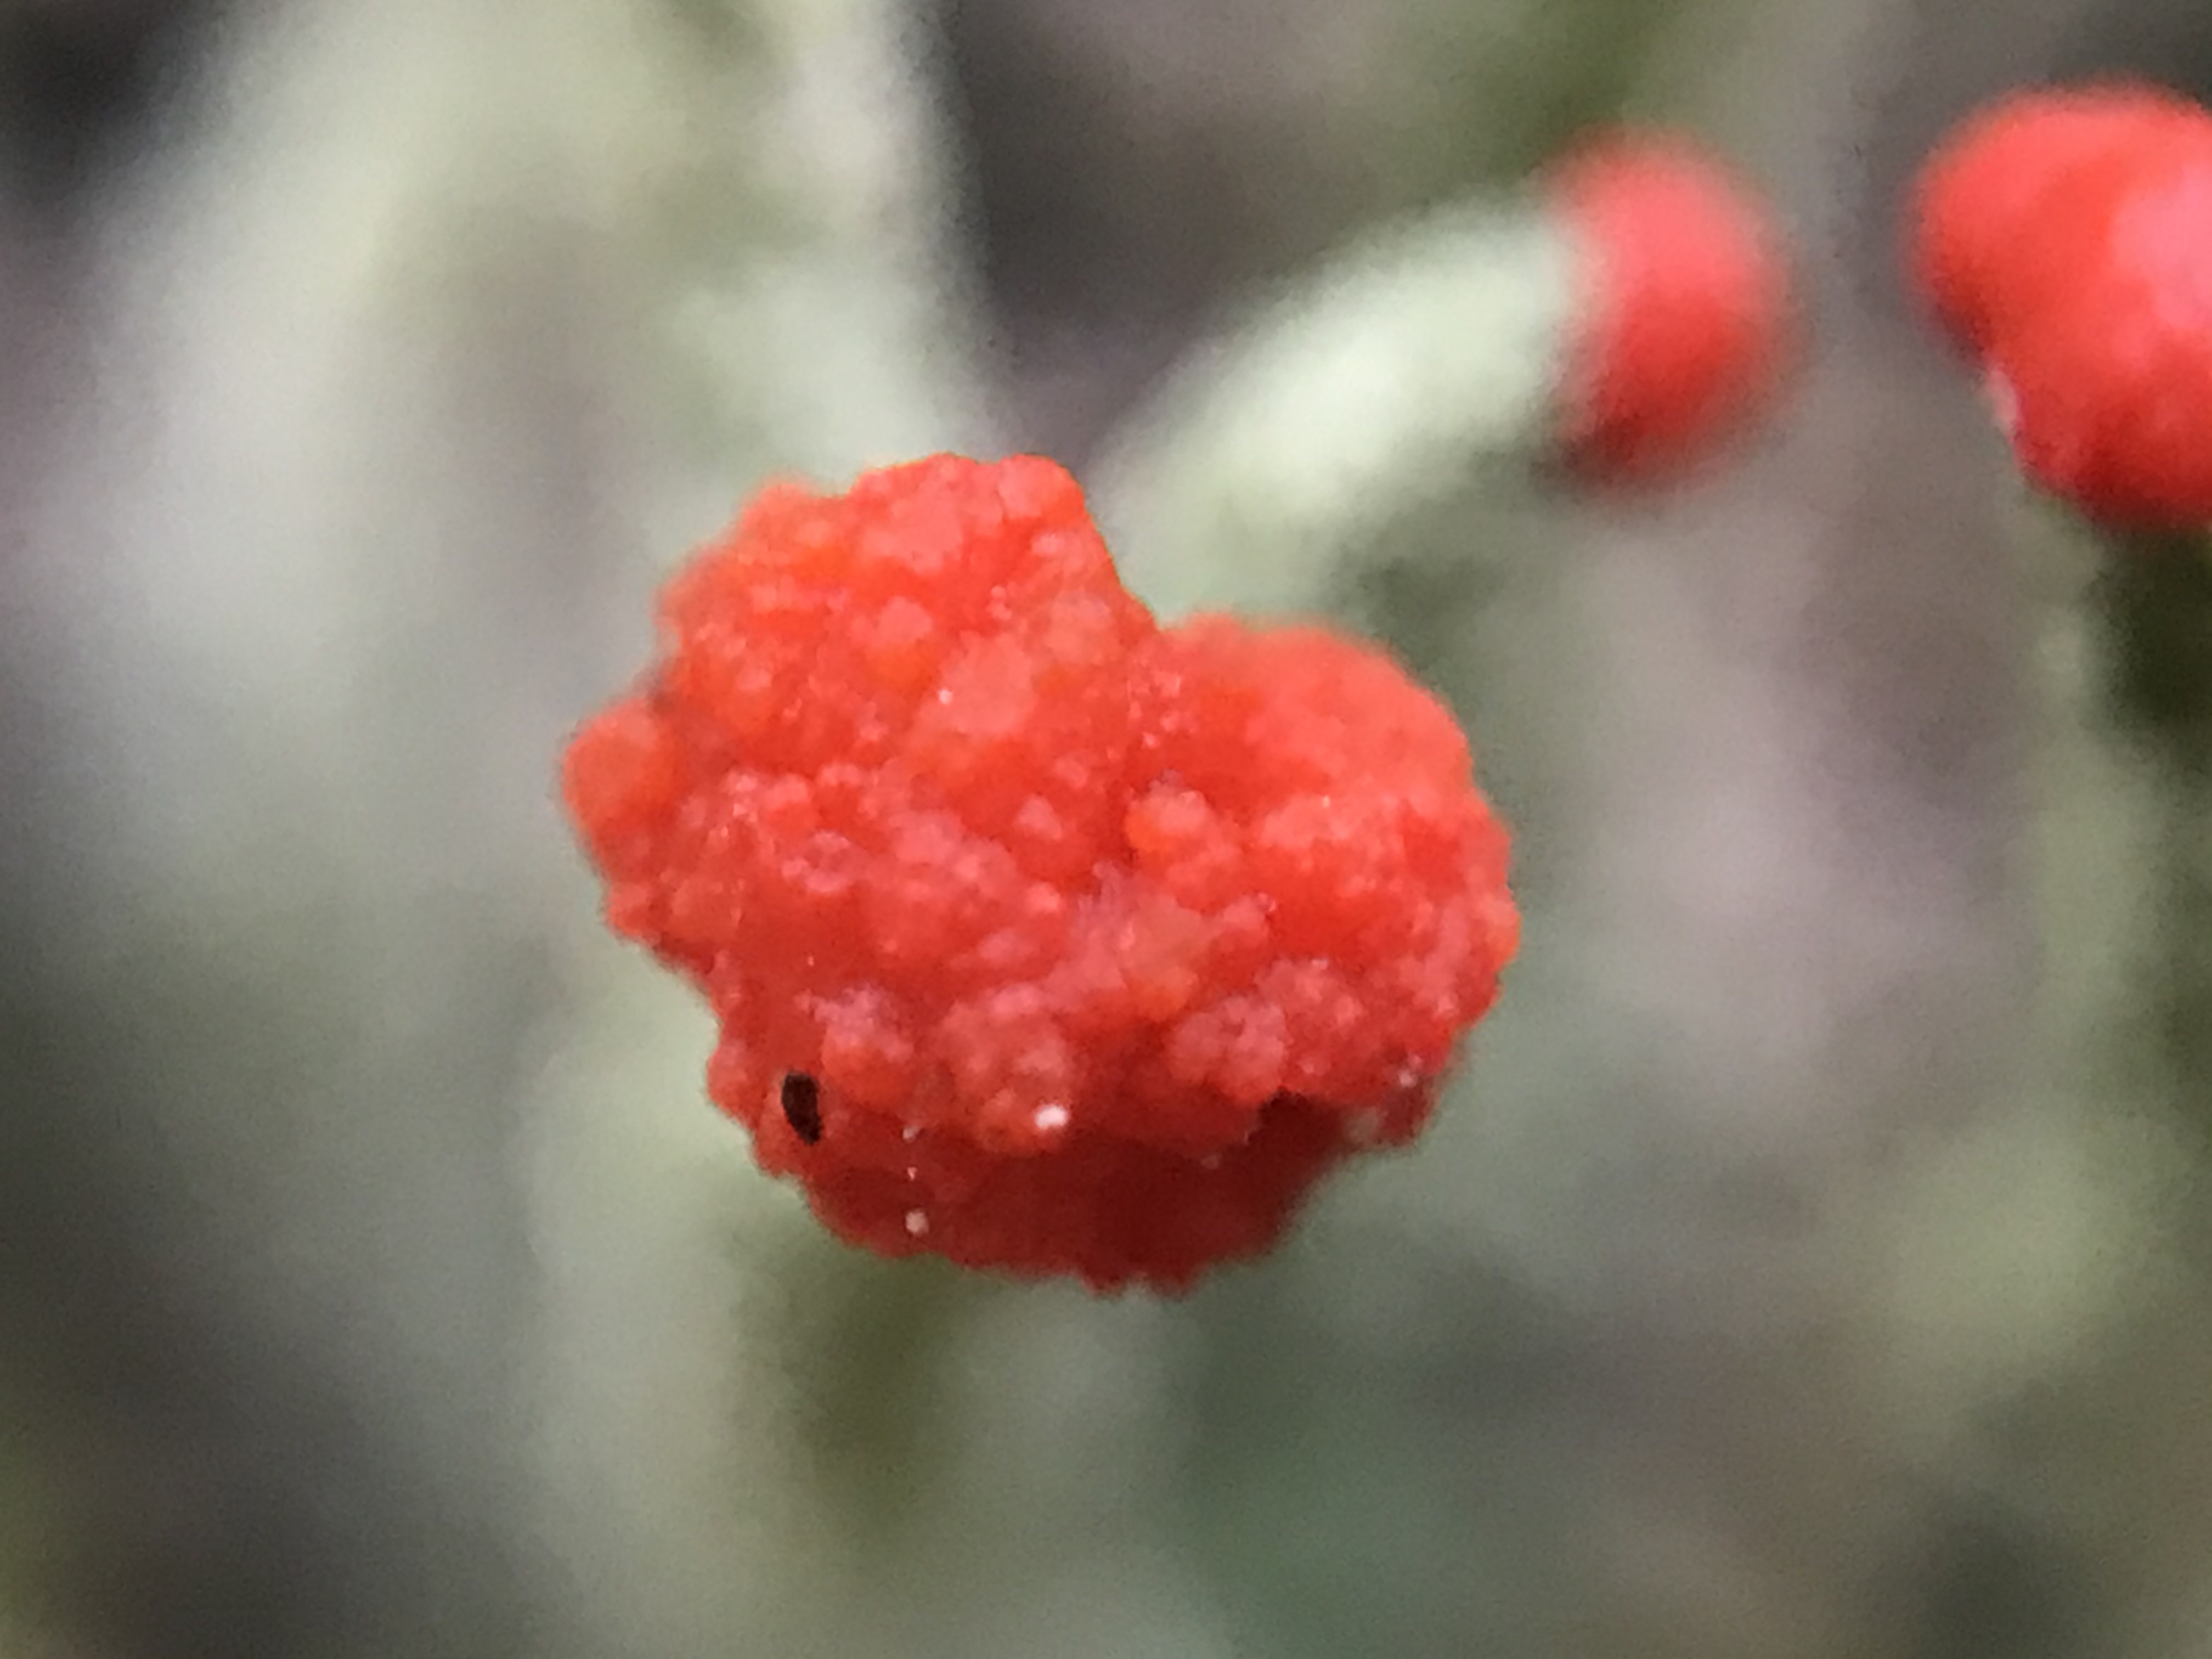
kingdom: Fungi
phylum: Ascomycota
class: Lecanoromycetes
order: Lecanorales
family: Cladoniaceae
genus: Cladonia
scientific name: Cladonia floerkeana
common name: lakrød bægerlav
